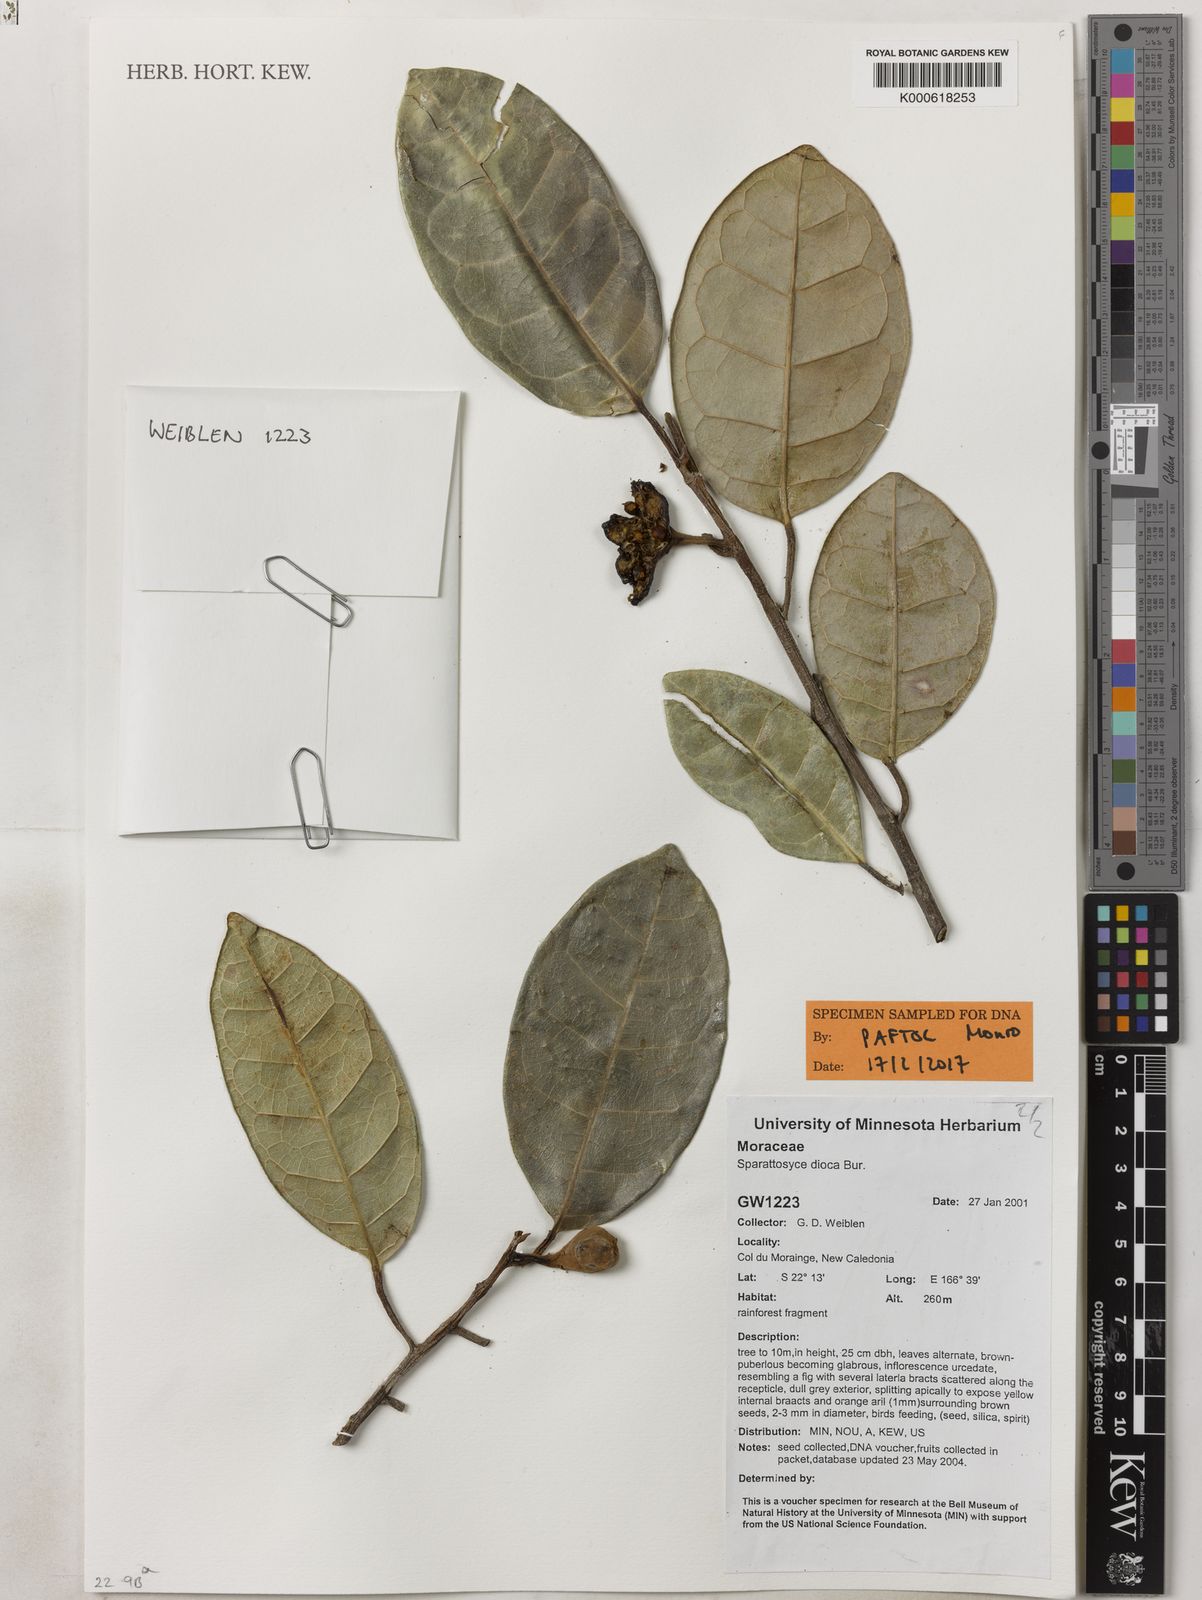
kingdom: Plantae
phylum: Tracheophyta
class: Magnoliopsida
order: Rosales
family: Moraceae
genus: Sparattosyce
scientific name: Sparattosyce dioica
